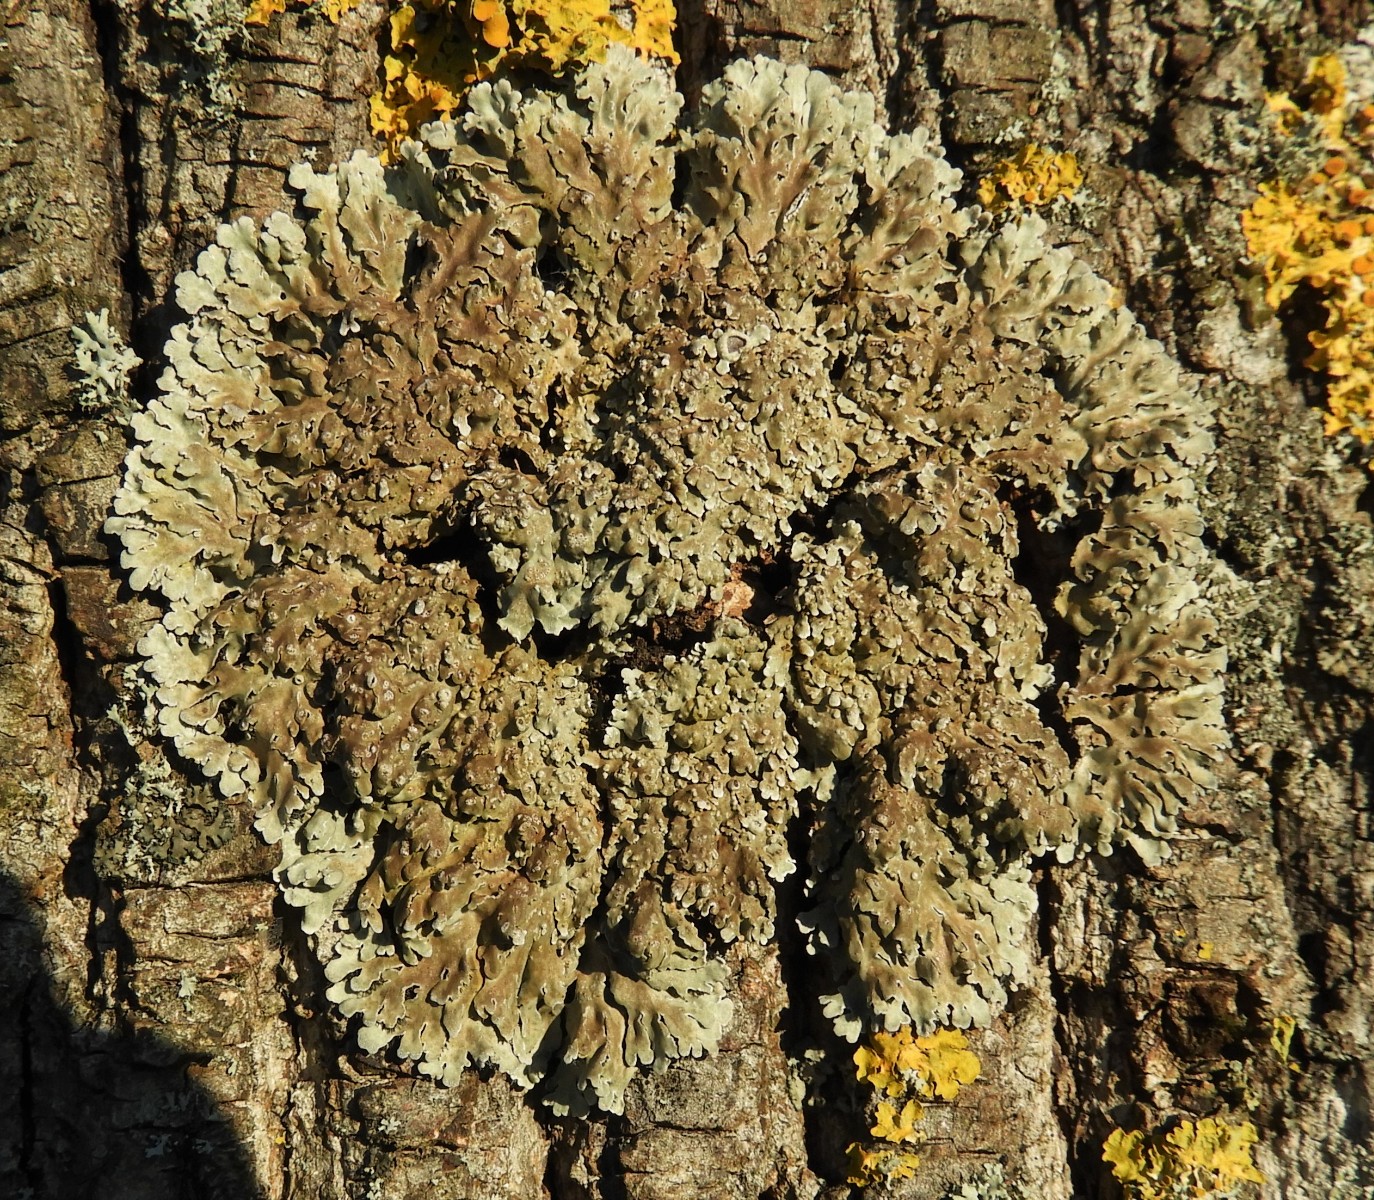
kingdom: Fungi
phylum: Ascomycota
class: Lecanoromycetes
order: Caliciales
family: Physciaceae
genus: Physconia
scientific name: Physconia distorta
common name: pudret dugrosetlav
